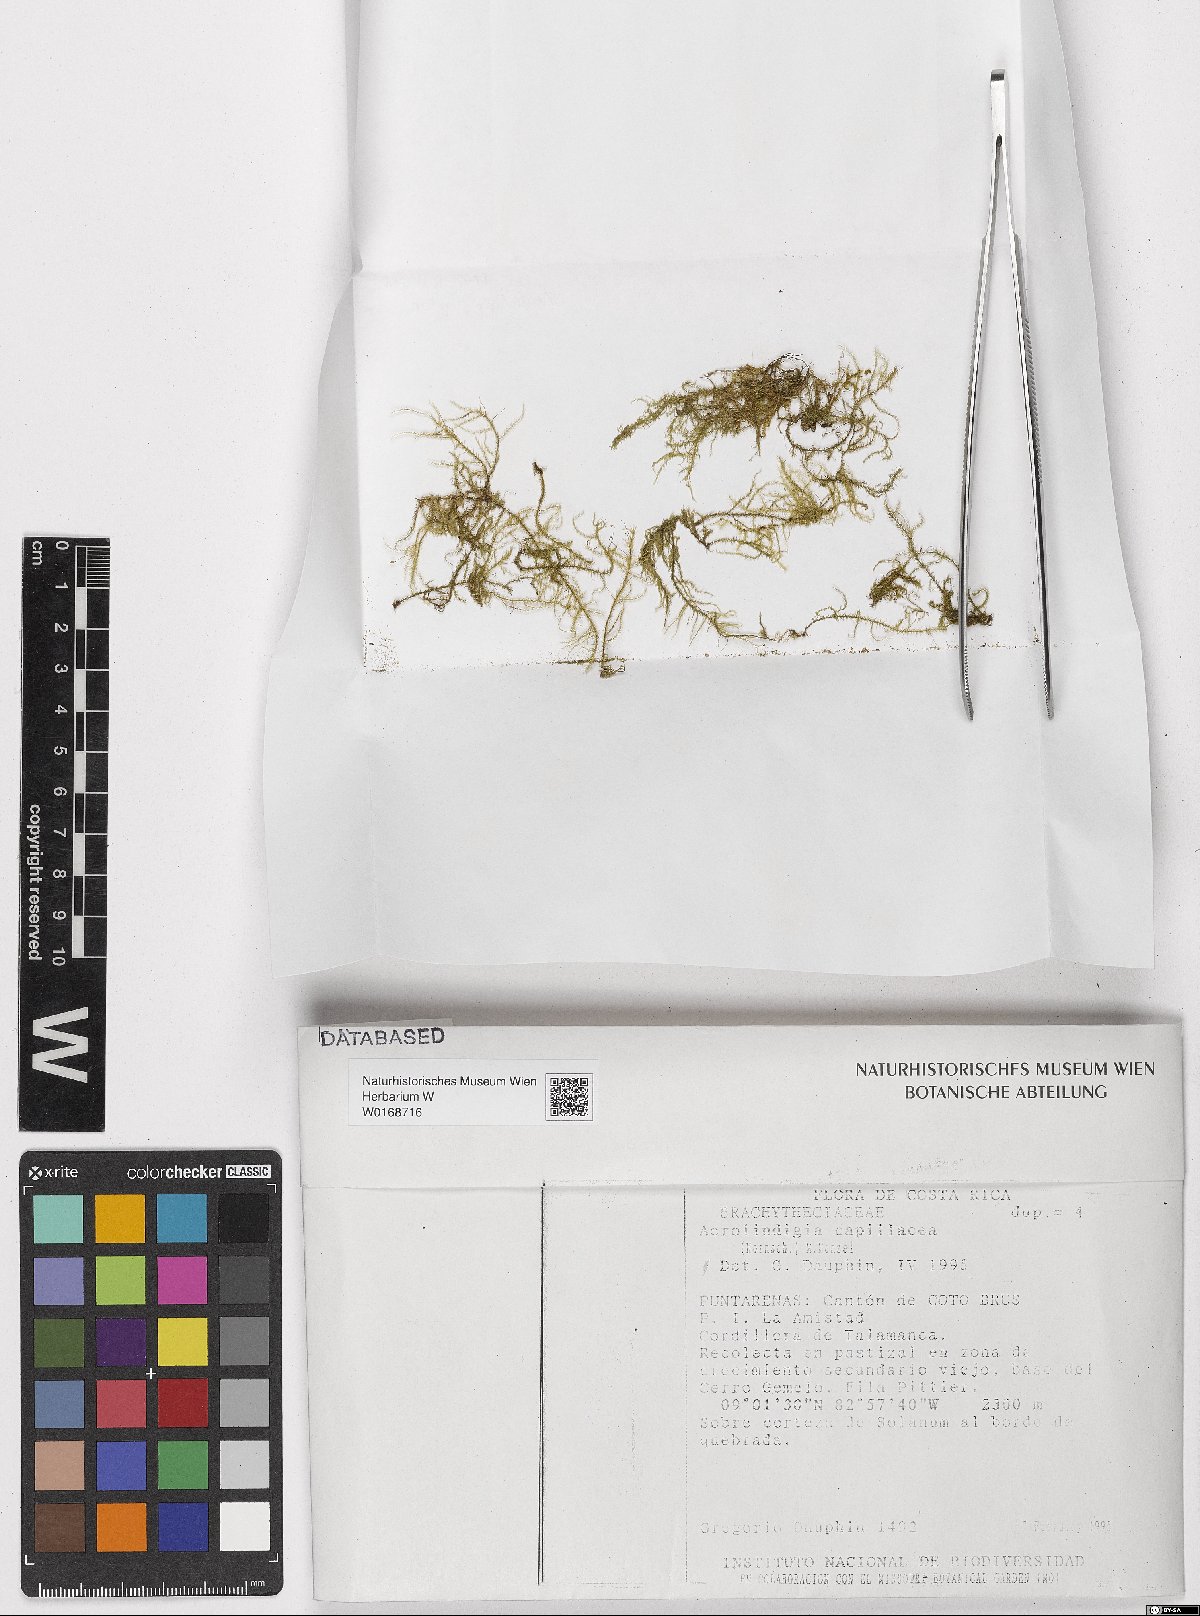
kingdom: Plantae
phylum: Bryophyta
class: Bryopsida
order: Hypnales
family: Brachytheciaceae
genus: Aerolindigia
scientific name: Aerolindigia capillacea
